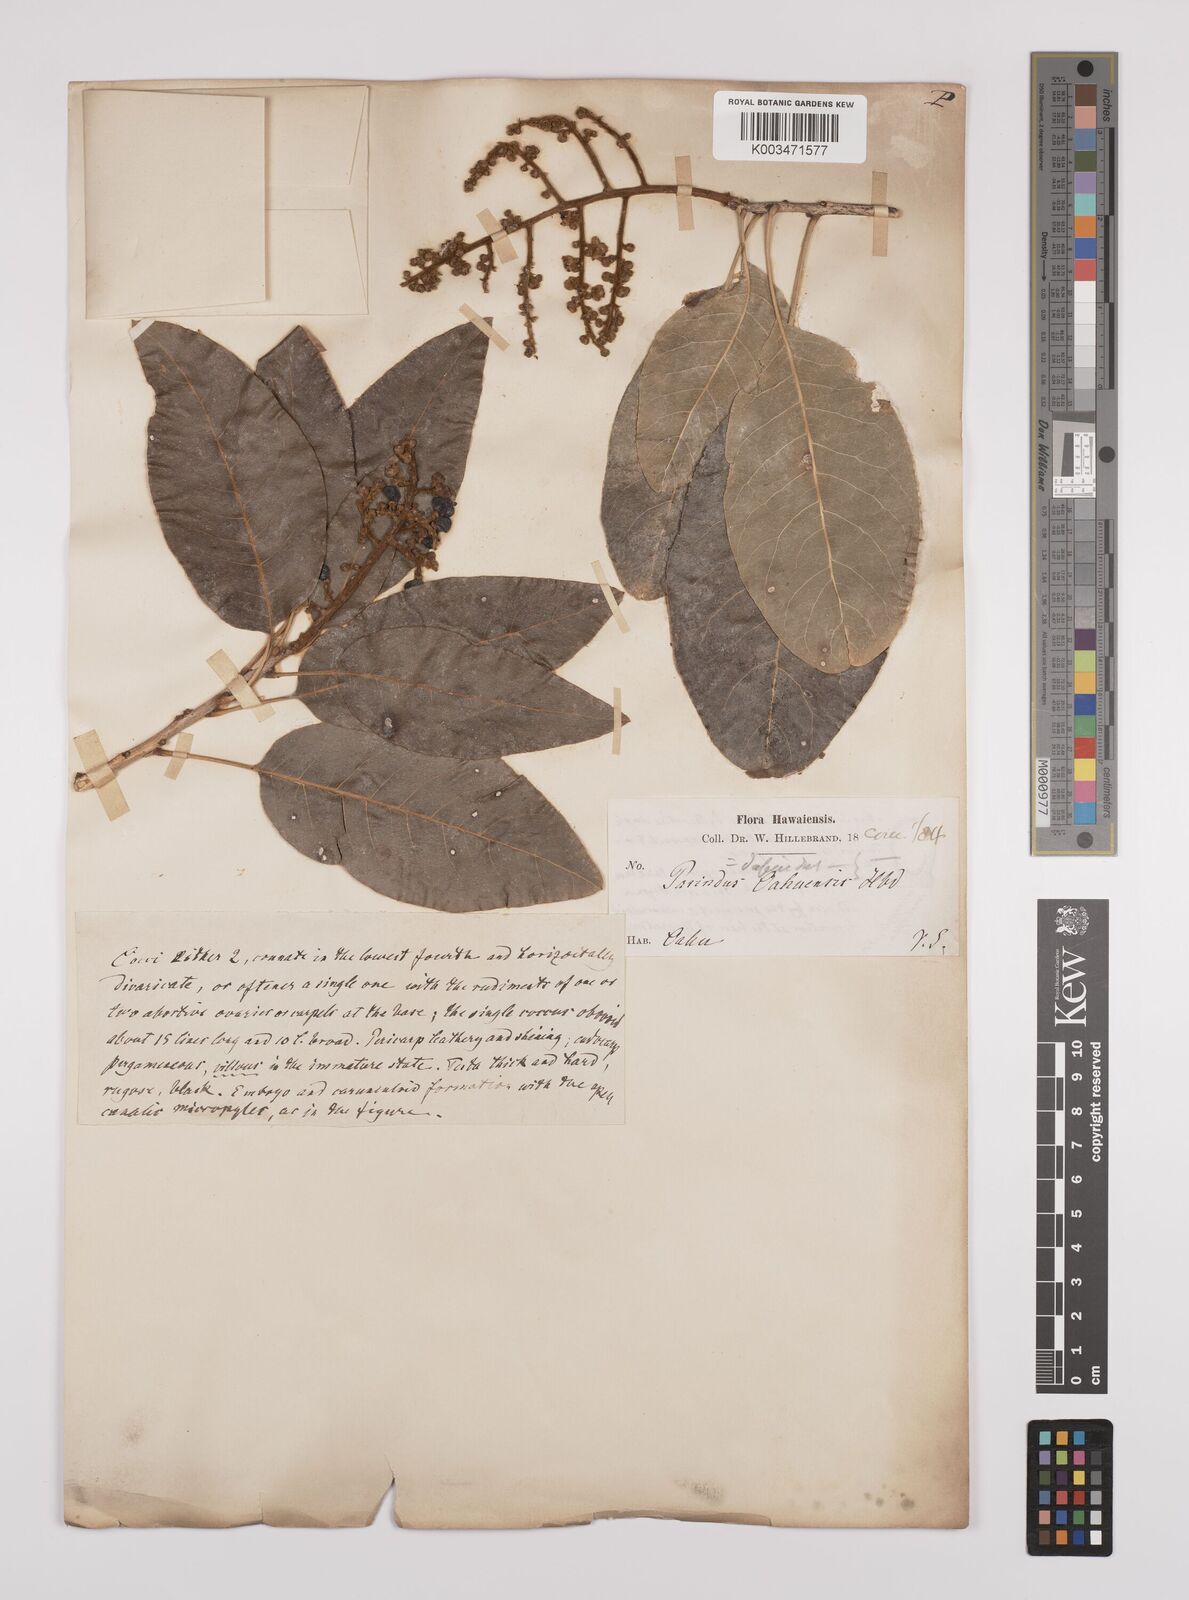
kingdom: Plantae
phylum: Tracheophyta
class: Magnoliopsida
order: Sapindales
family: Sapindaceae
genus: Sapindus
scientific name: Sapindus oahuensis
